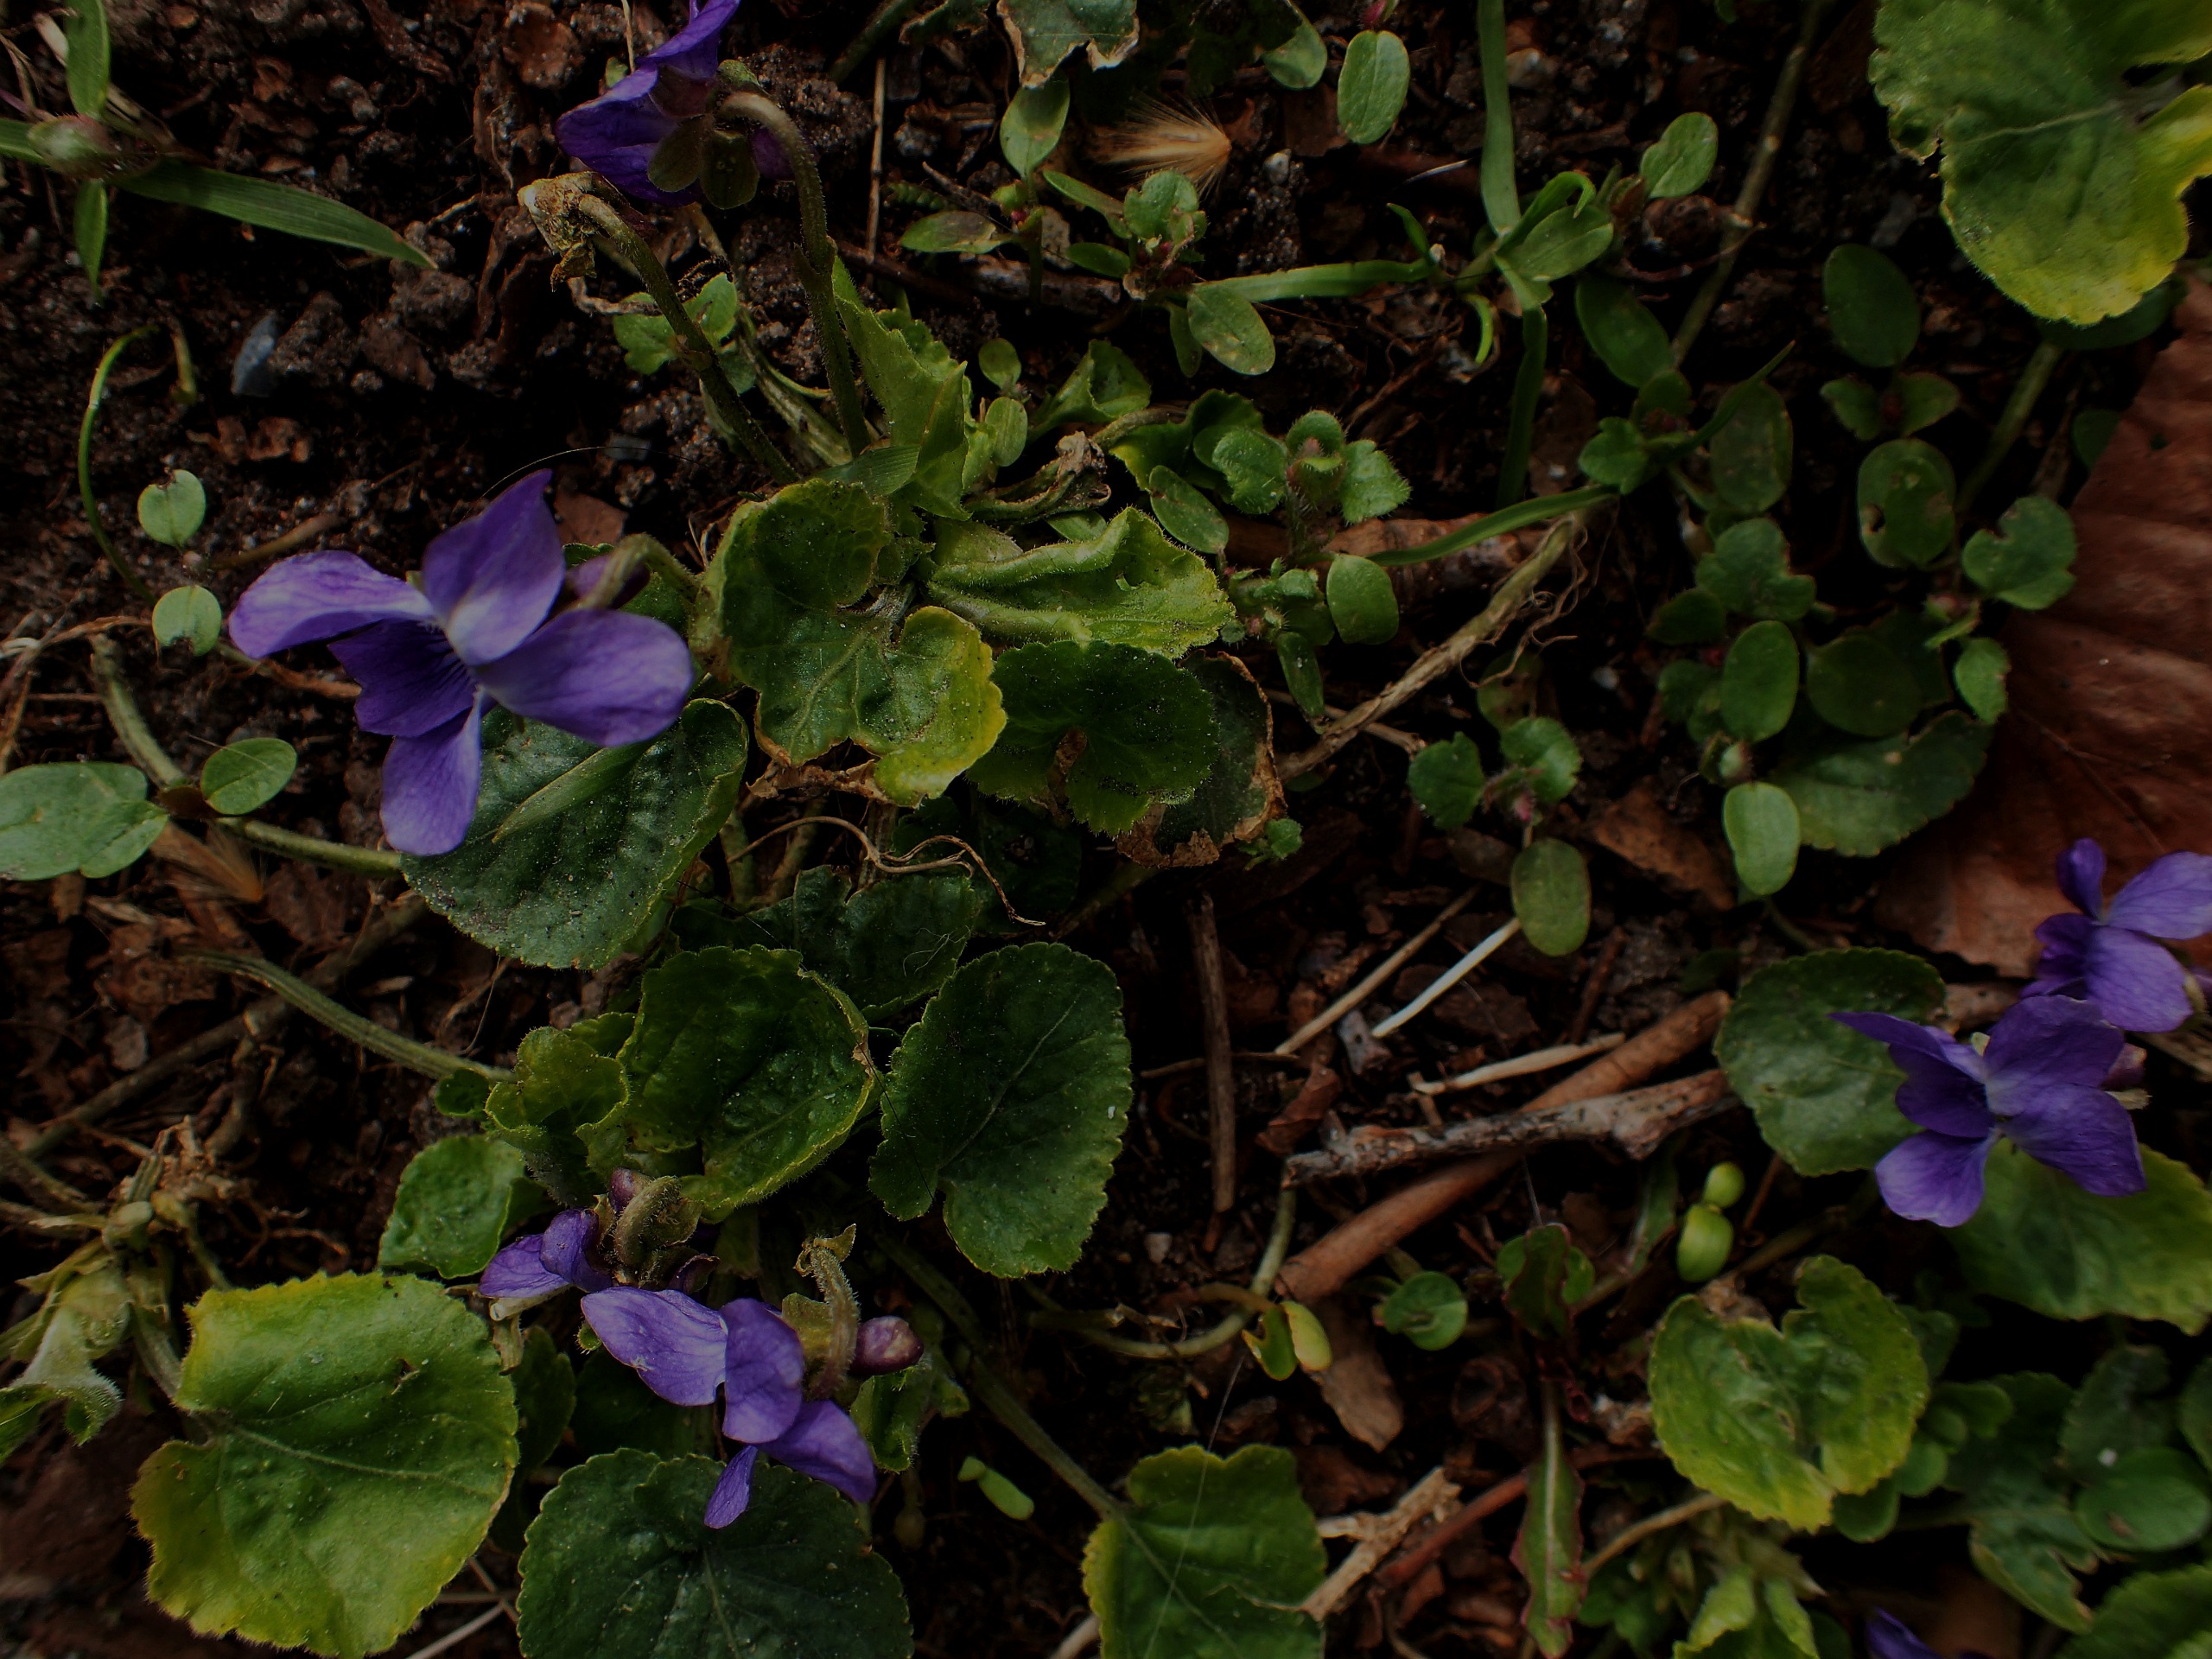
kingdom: Plantae
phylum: Tracheophyta
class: Magnoliopsida
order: Malpighiales
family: Violaceae
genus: Viola
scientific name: Viola odorata
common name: Marts-viol
